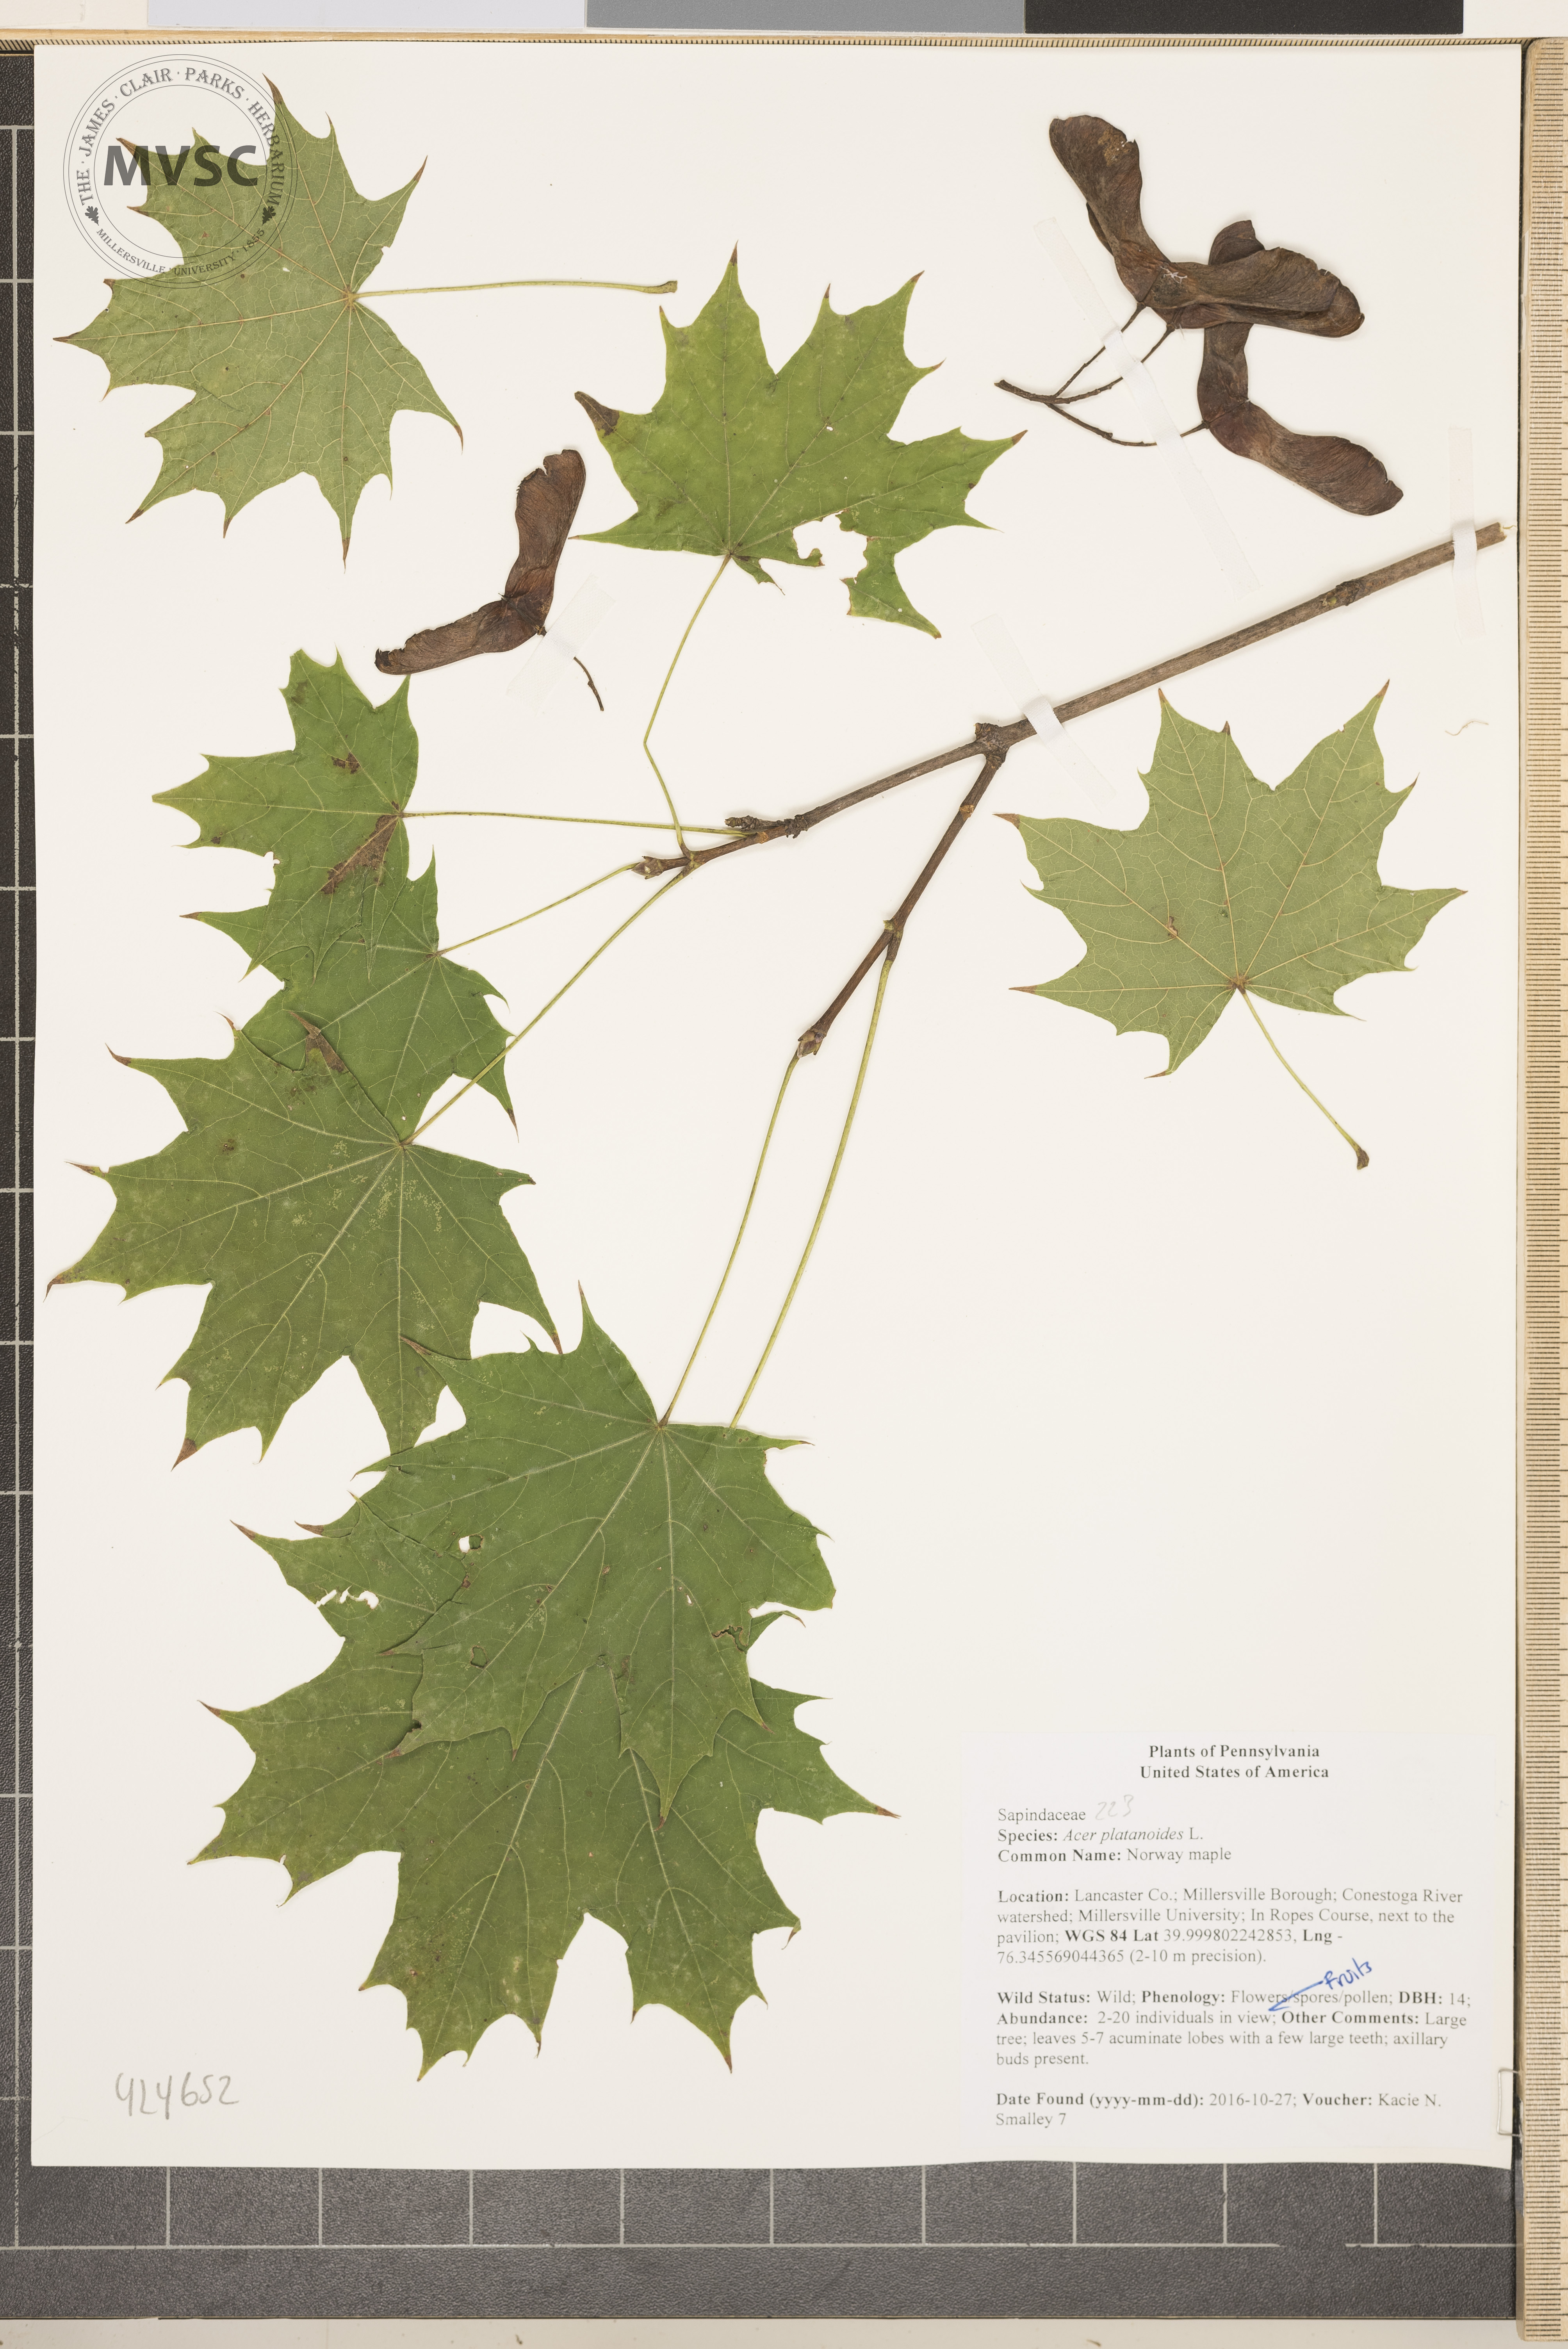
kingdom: Plantae
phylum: Tracheophyta
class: Magnoliopsida
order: Sapindales
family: Sapindaceae
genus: Acer
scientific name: Acer platanoides
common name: Norway maple
